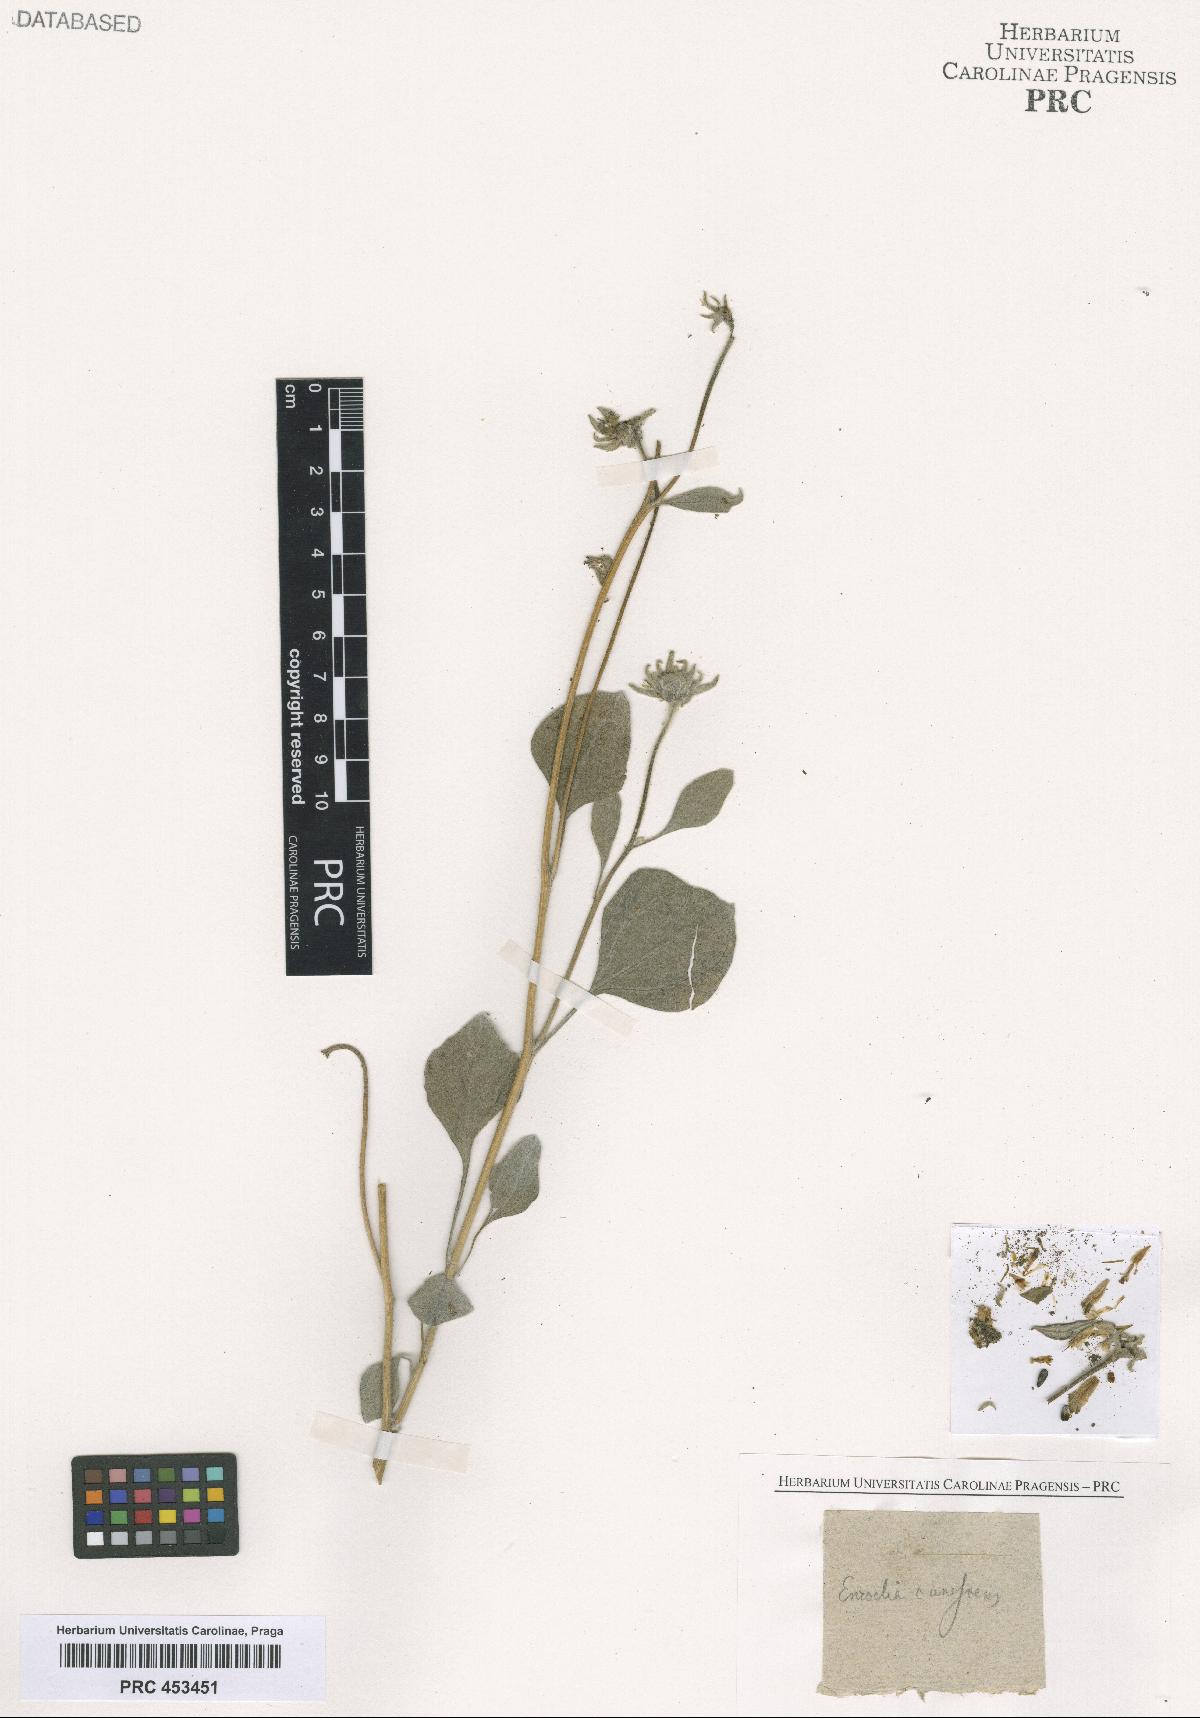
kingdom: Plantae
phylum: Tracheophyta
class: Magnoliopsida
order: Asterales
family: Asteraceae
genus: Encelia
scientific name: Encelia
